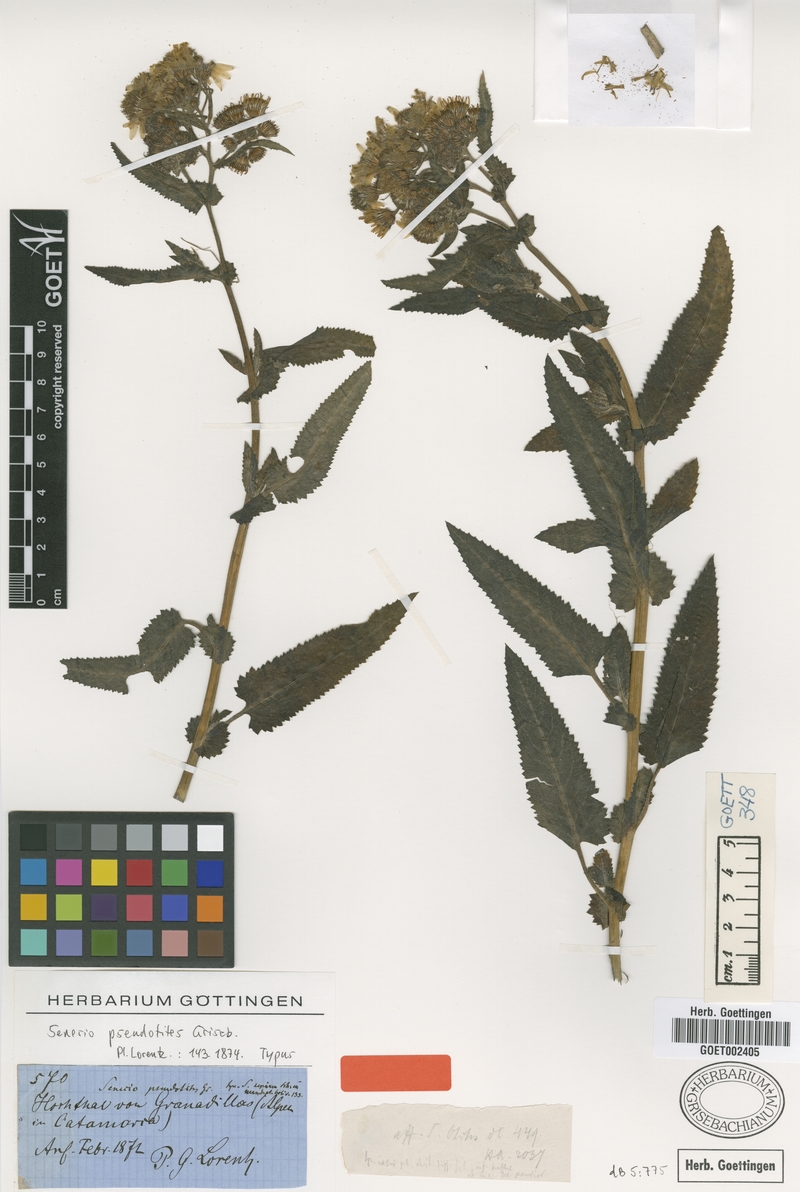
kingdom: Plantae
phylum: Tracheophyta
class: Magnoliopsida
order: Asterales
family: Asteraceae
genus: Senecio
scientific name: Senecio pseudotites
